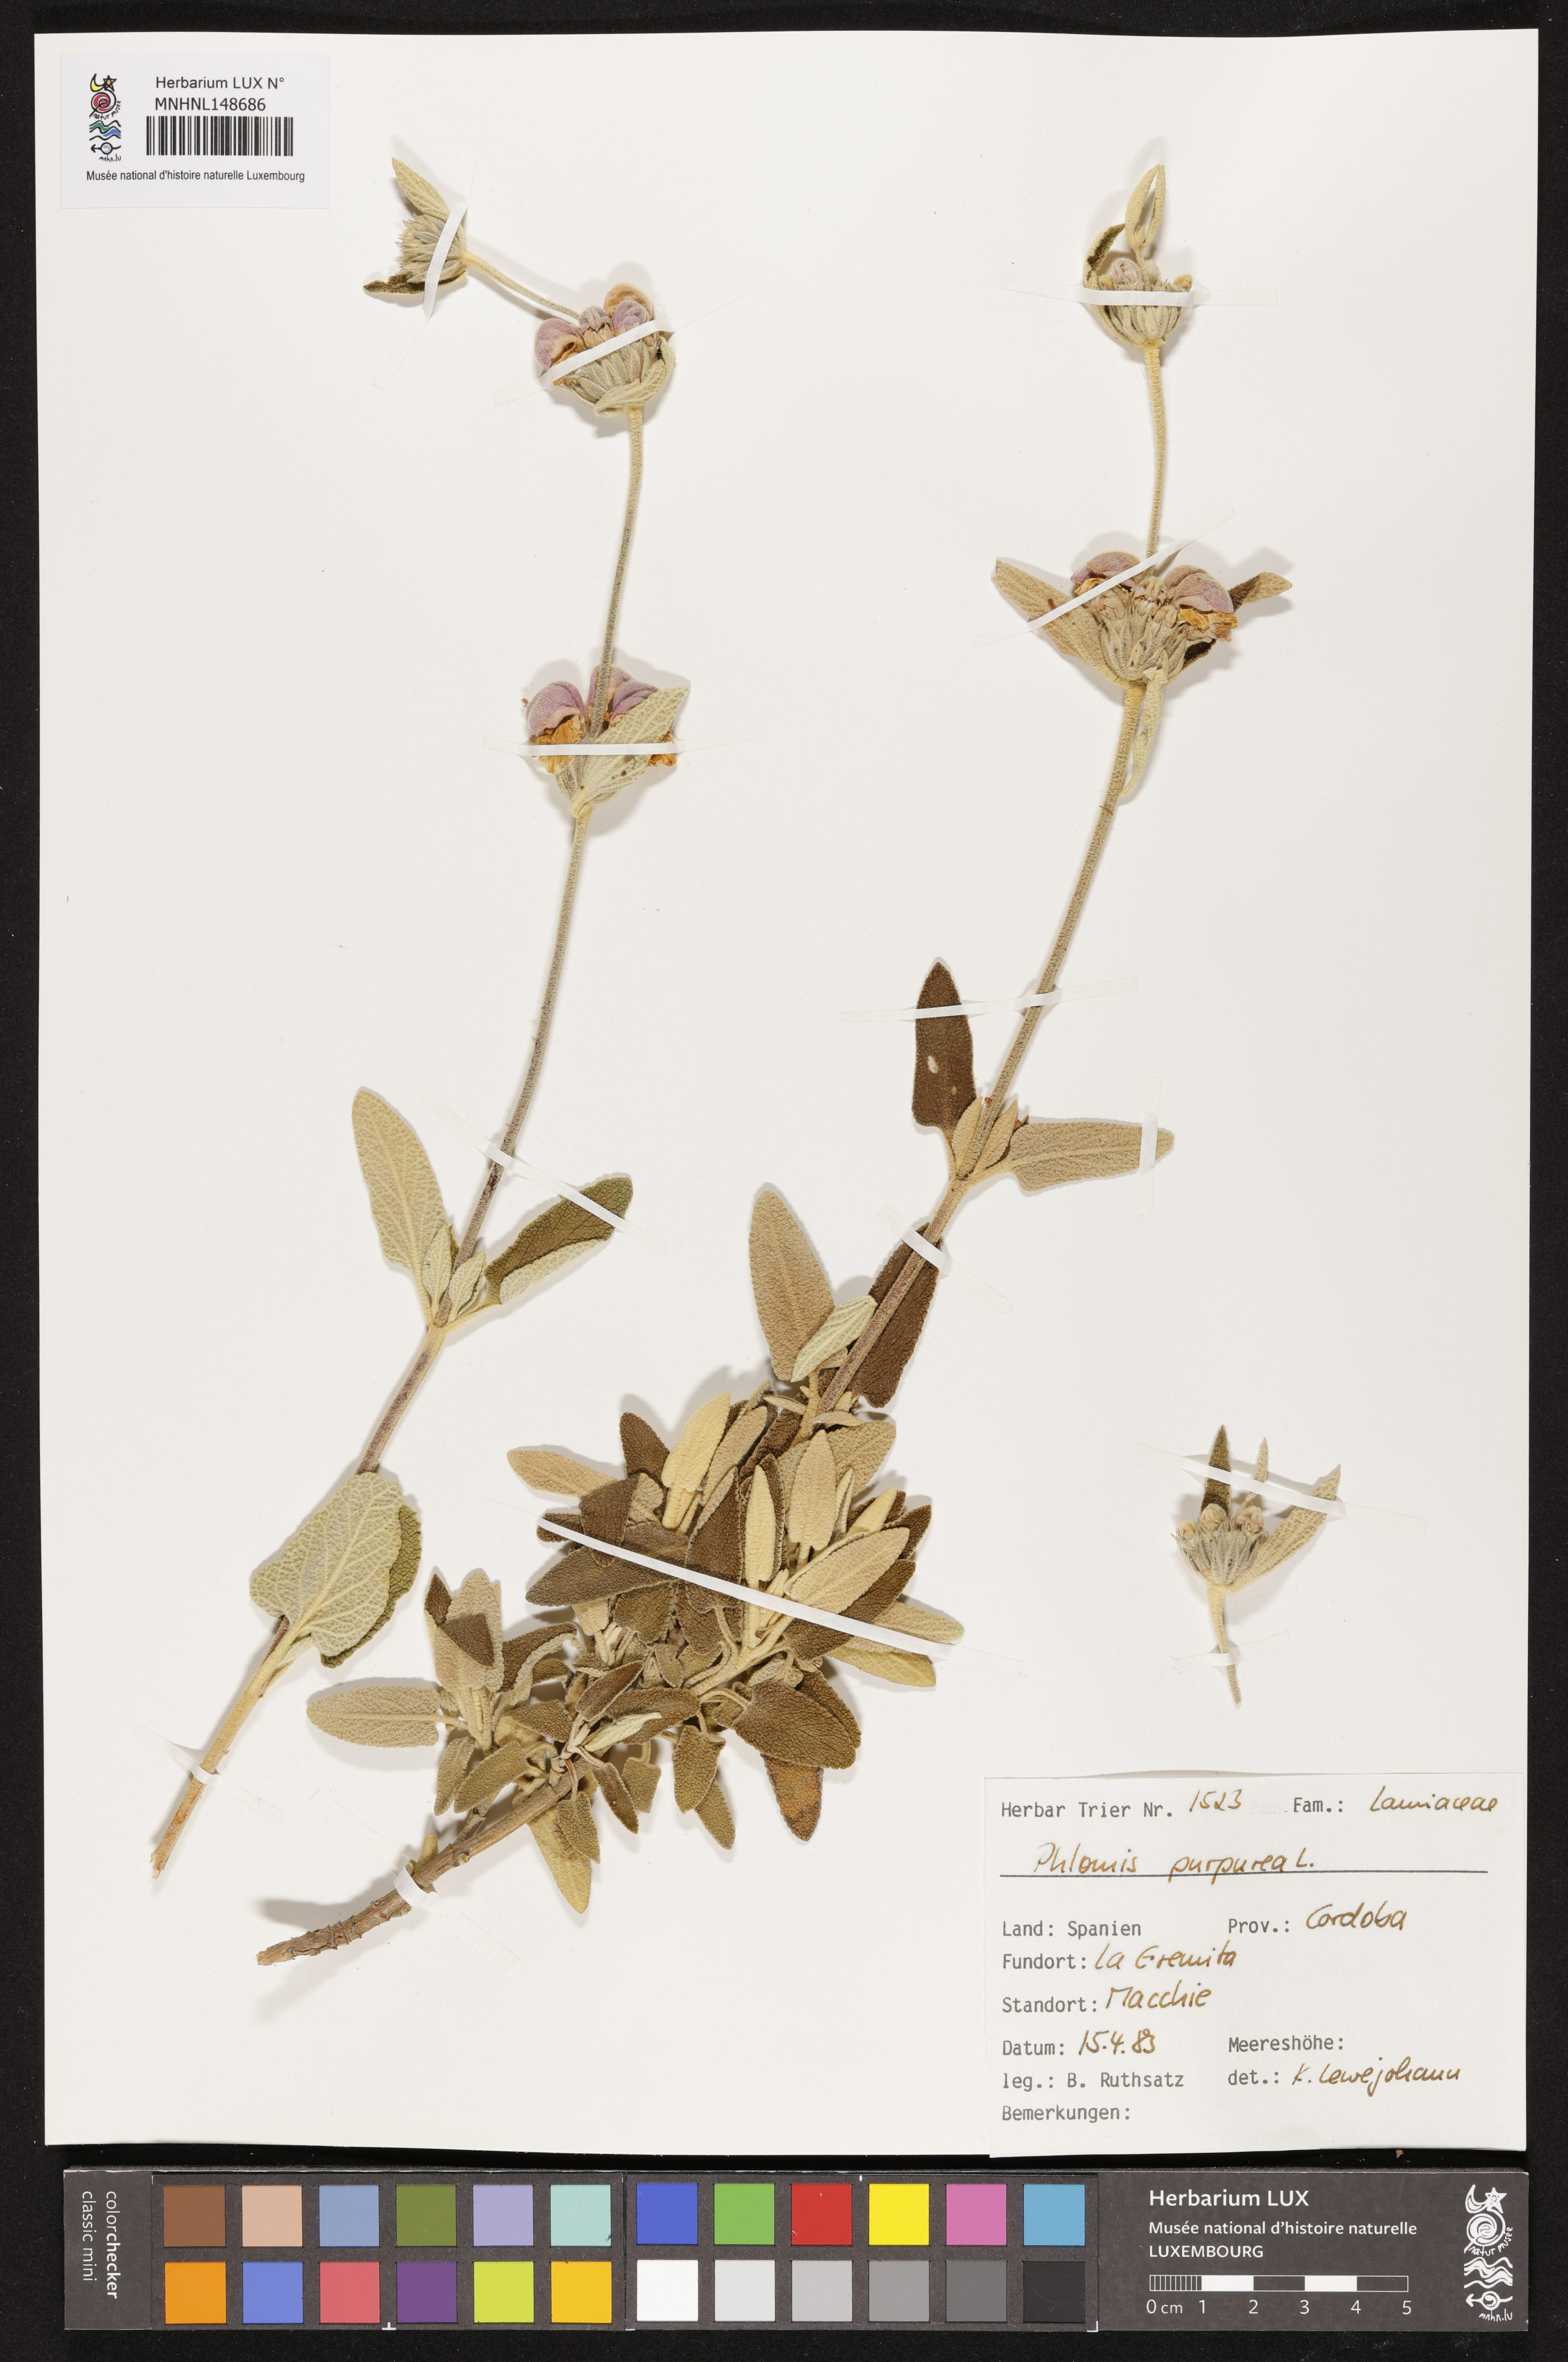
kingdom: Plantae
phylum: Tracheophyta
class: Magnoliopsida
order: Lamiales
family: Lamiaceae
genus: Phlomis
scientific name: Phlomis purpurea
